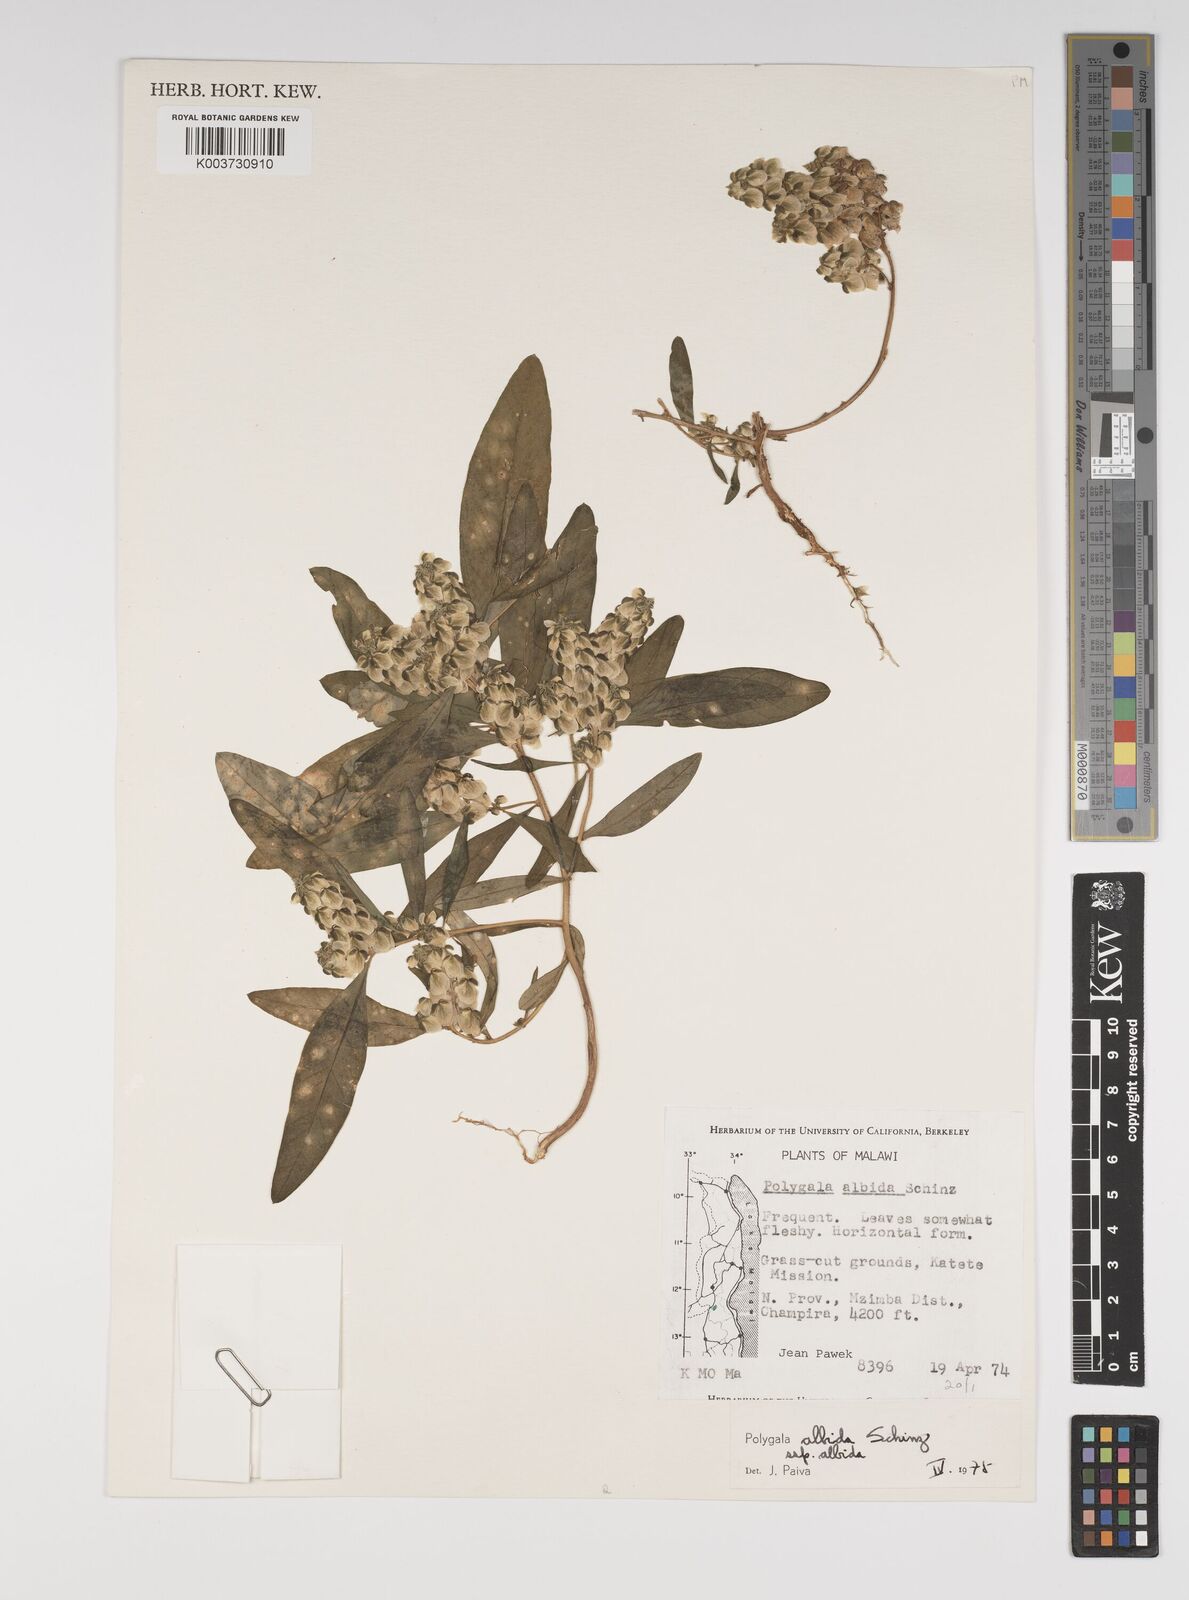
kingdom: Plantae
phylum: Tracheophyta
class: Magnoliopsida
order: Fabales
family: Polygalaceae
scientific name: Polygalaceae
